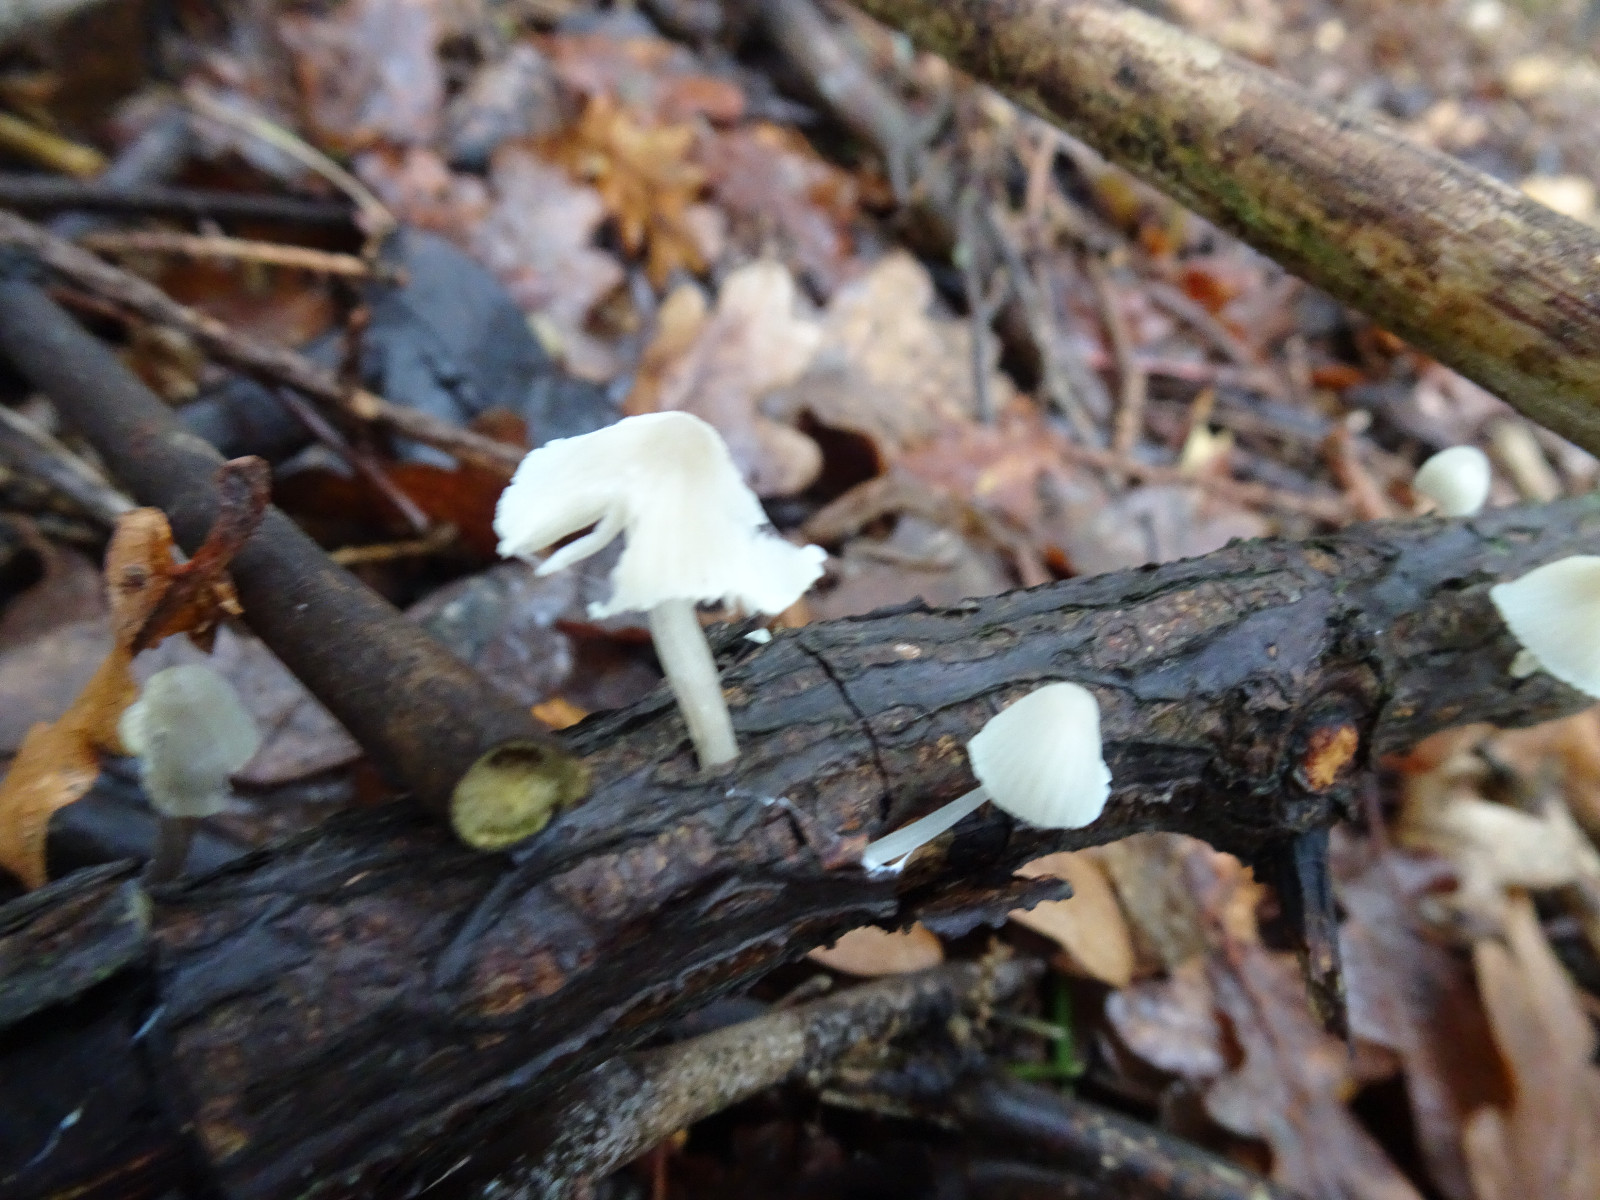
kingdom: Fungi
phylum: Basidiomycota
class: Agaricomycetes
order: Agaricales
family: Mycenaceae
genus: Mycena
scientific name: Mycena arcangeliana
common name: oliven-huesvamp
